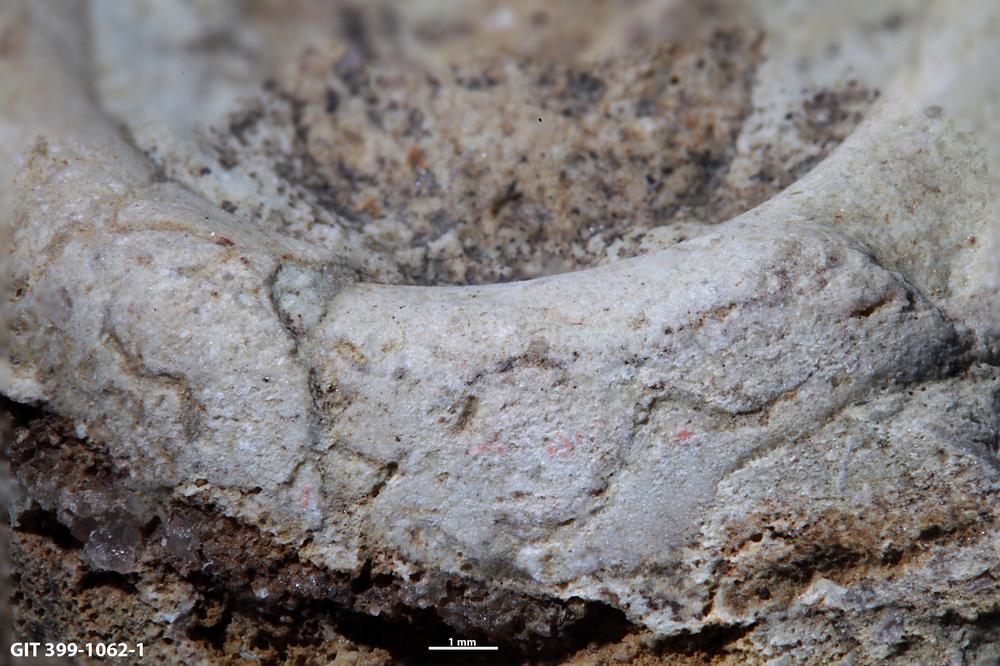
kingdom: Animalia
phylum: Annelida
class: Polychaeta
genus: Arachnostega
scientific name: Arachnostega gastrochaenae
